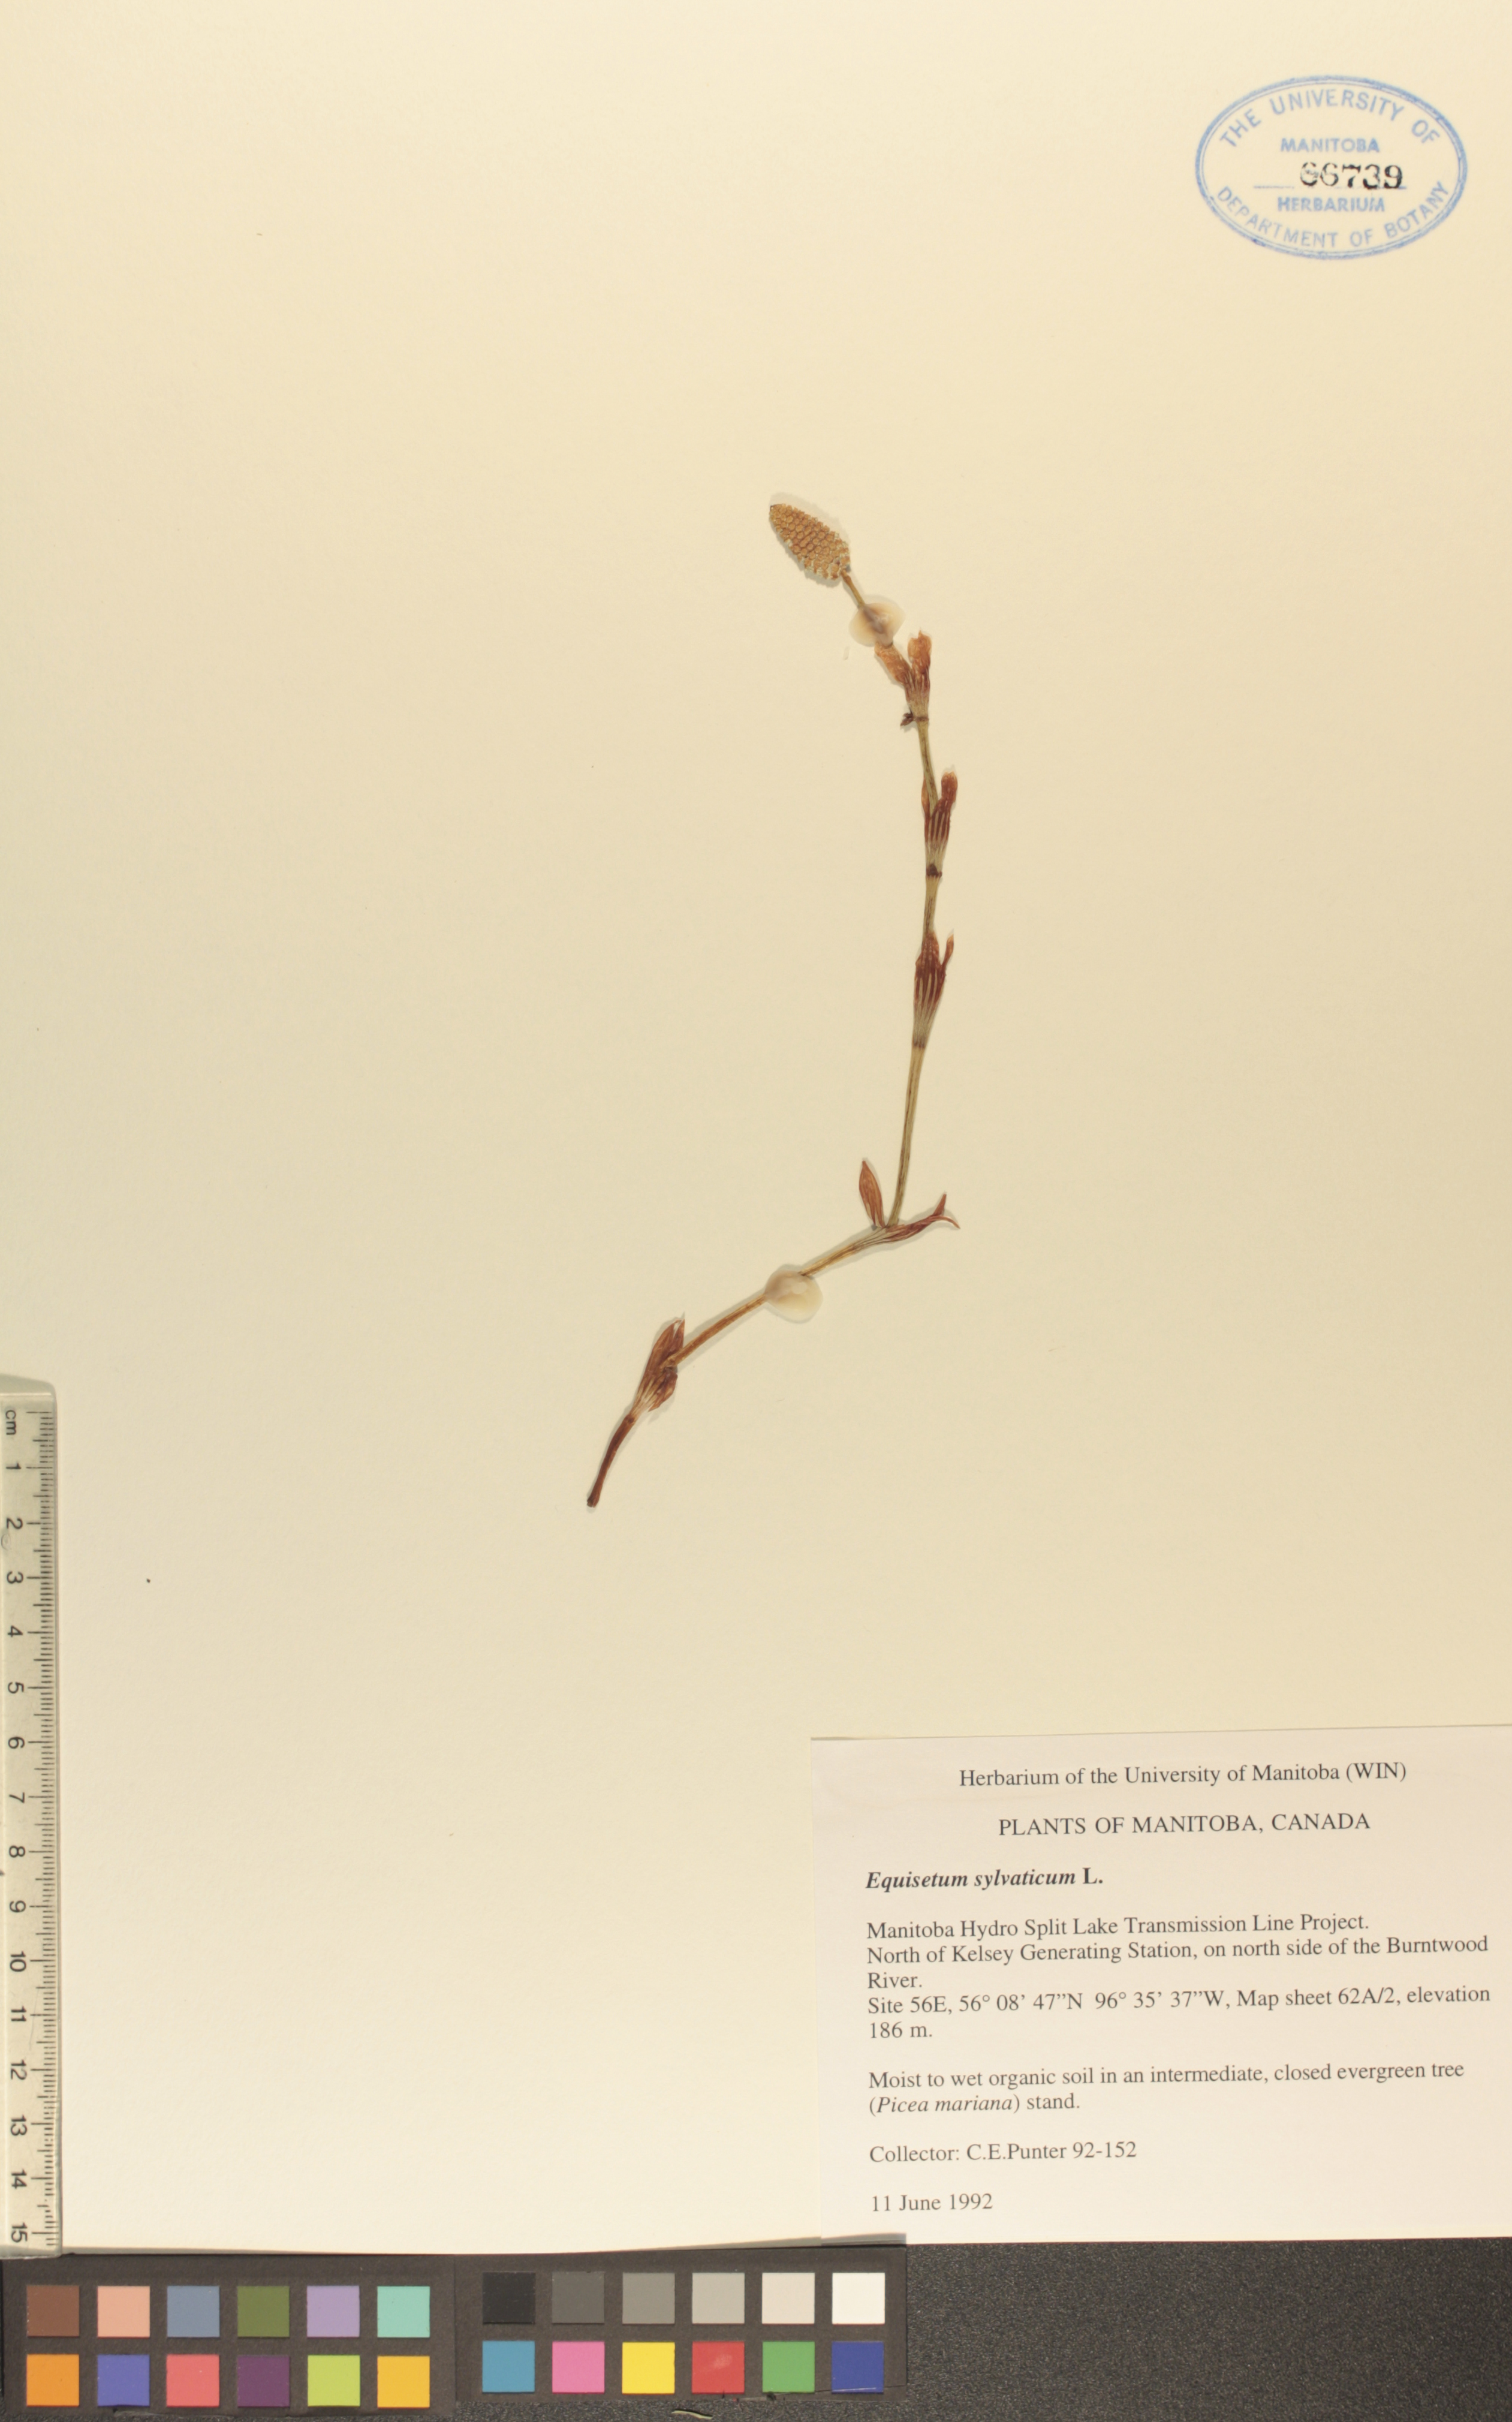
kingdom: Plantae
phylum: Tracheophyta
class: Polypodiopsida
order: Equisetales
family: Equisetaceae
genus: Equisetum
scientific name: Equisetum sylvaticum
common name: Wood horsetail
